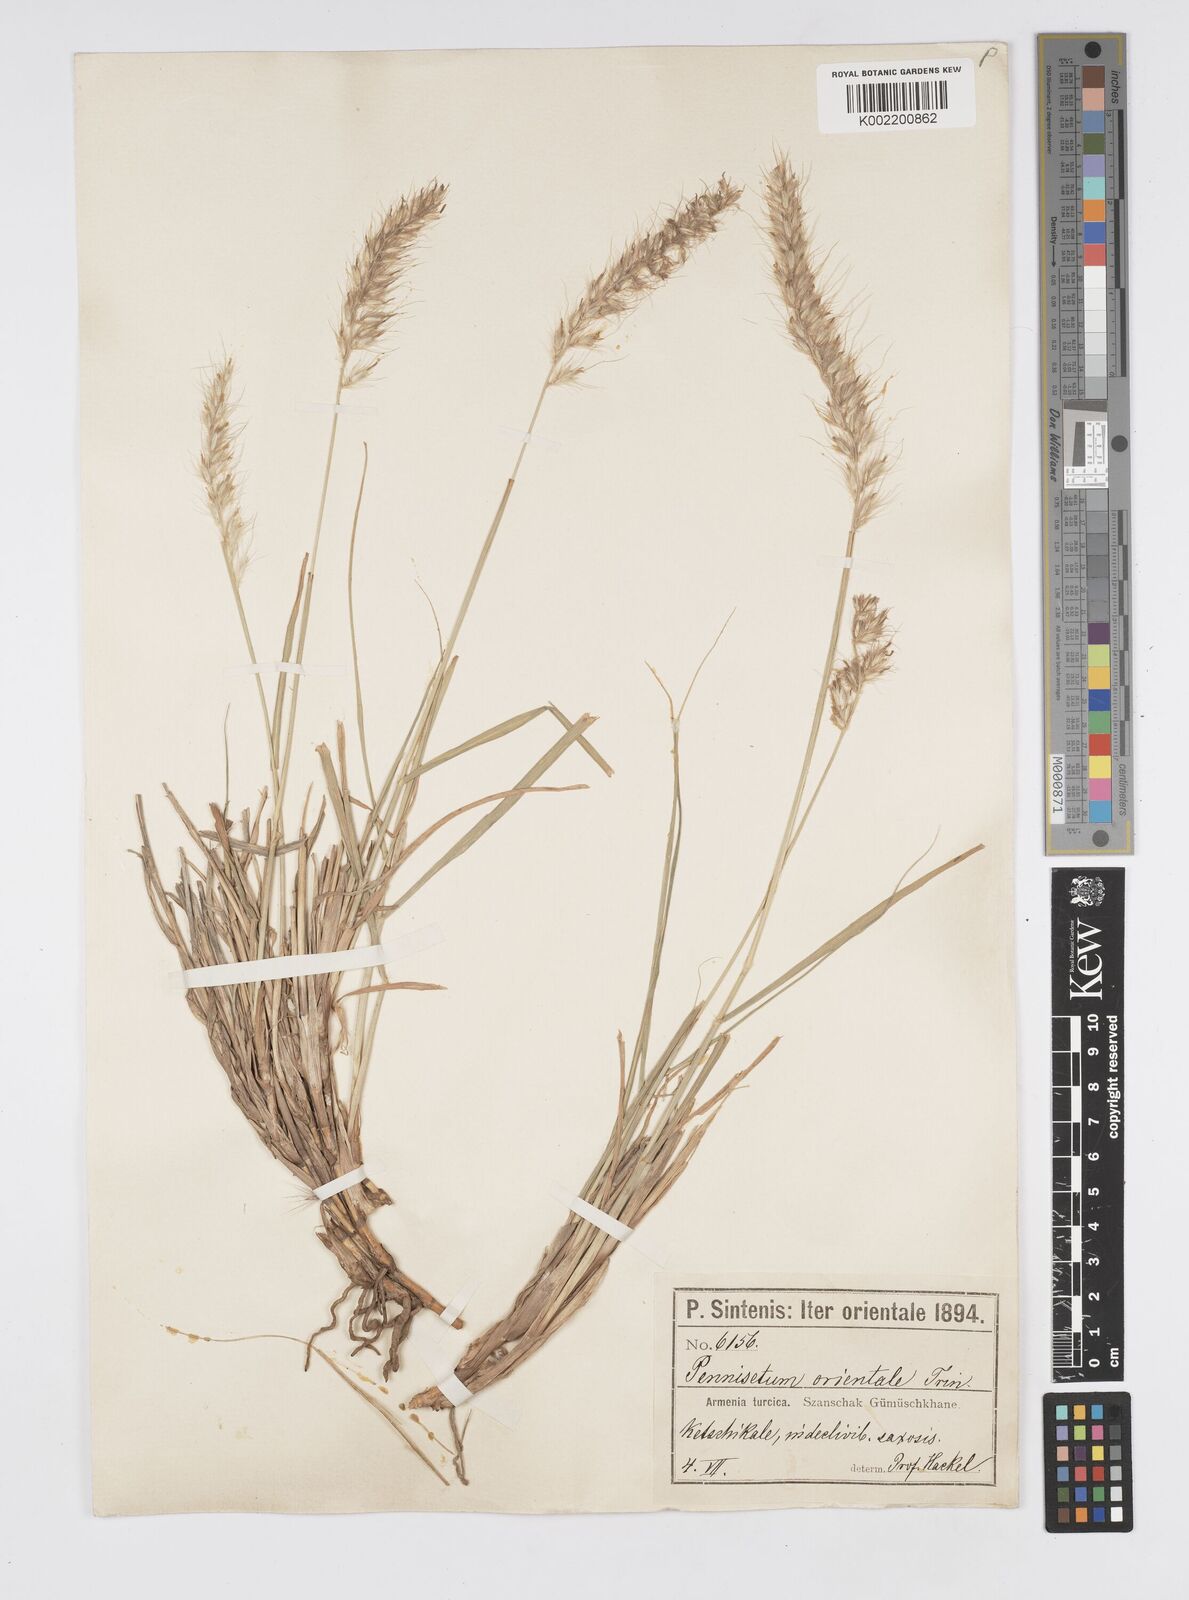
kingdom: Plantae
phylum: Tracheophyta
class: Liliopsida
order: Poales
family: Poaceae
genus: Cenchrus
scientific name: Cenchrus orientalis
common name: Oriental fountain grass
